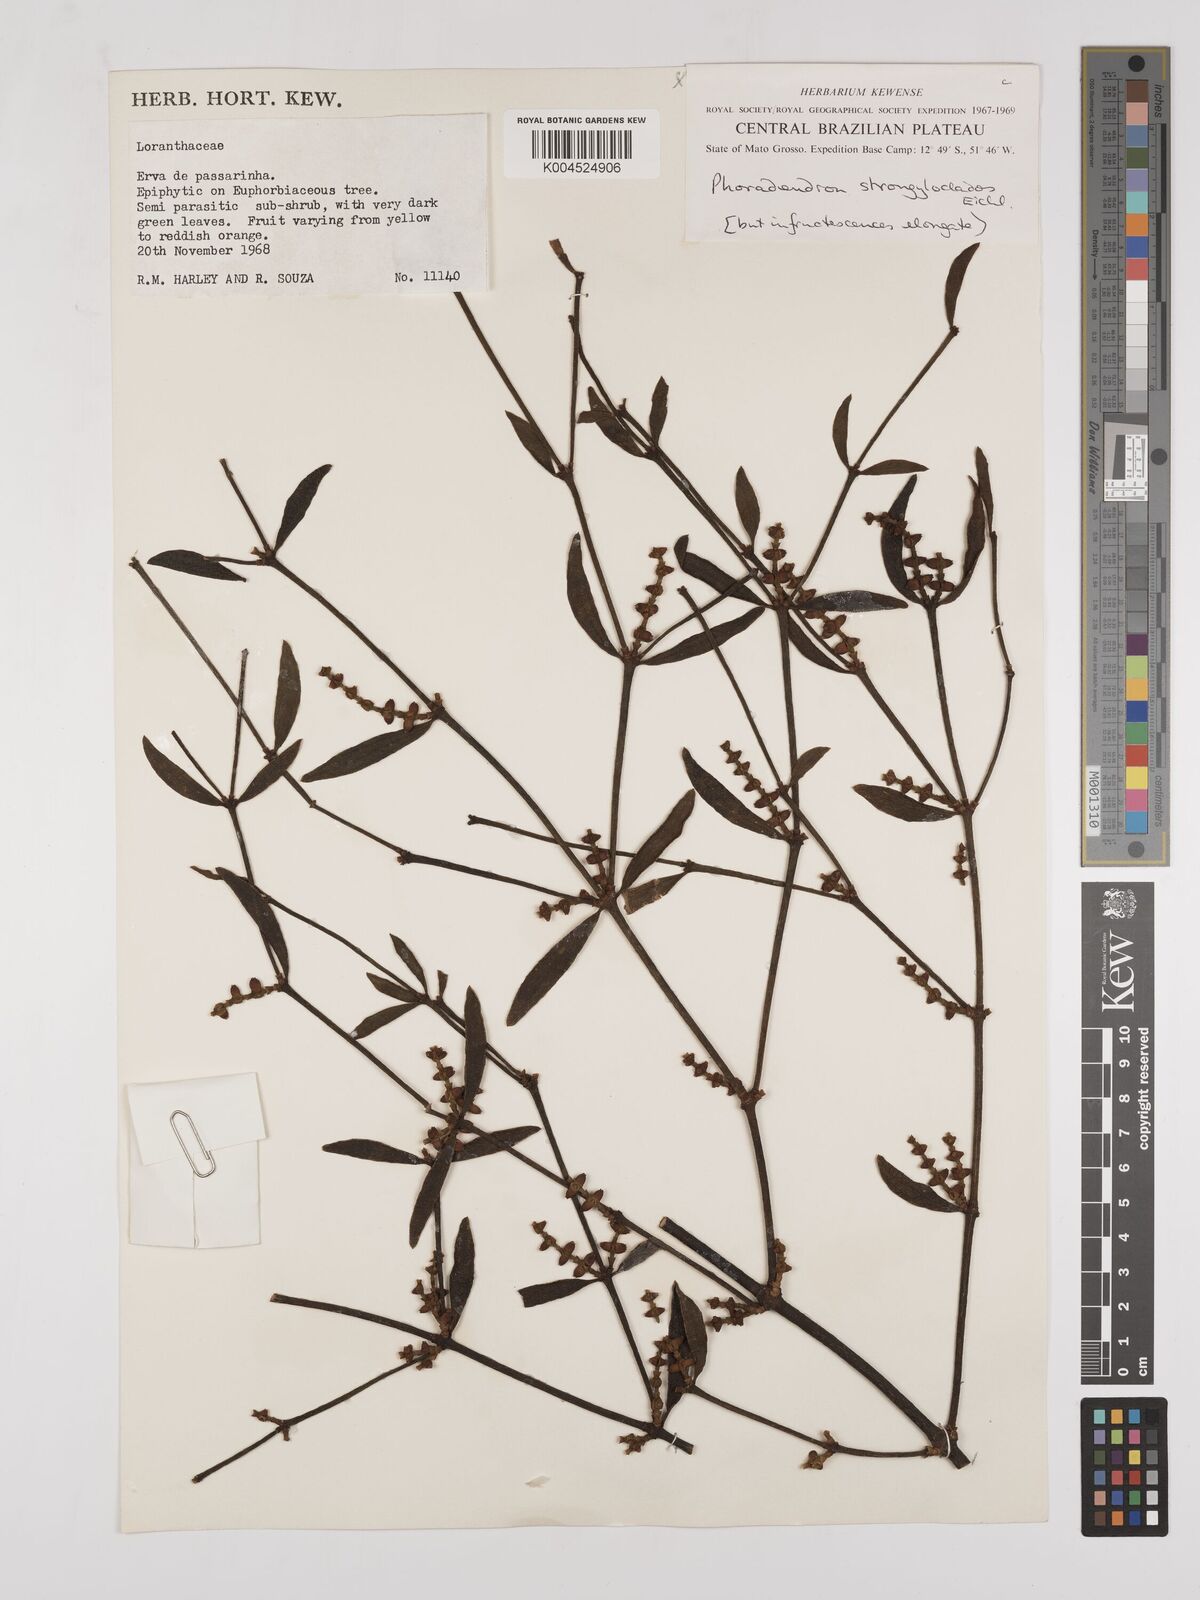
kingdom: Plantae
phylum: Tracheophyta
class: Magnoliopsida
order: Santalales
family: Viscaceae
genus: Phoradendron
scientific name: Phoradendron strongyloclados
